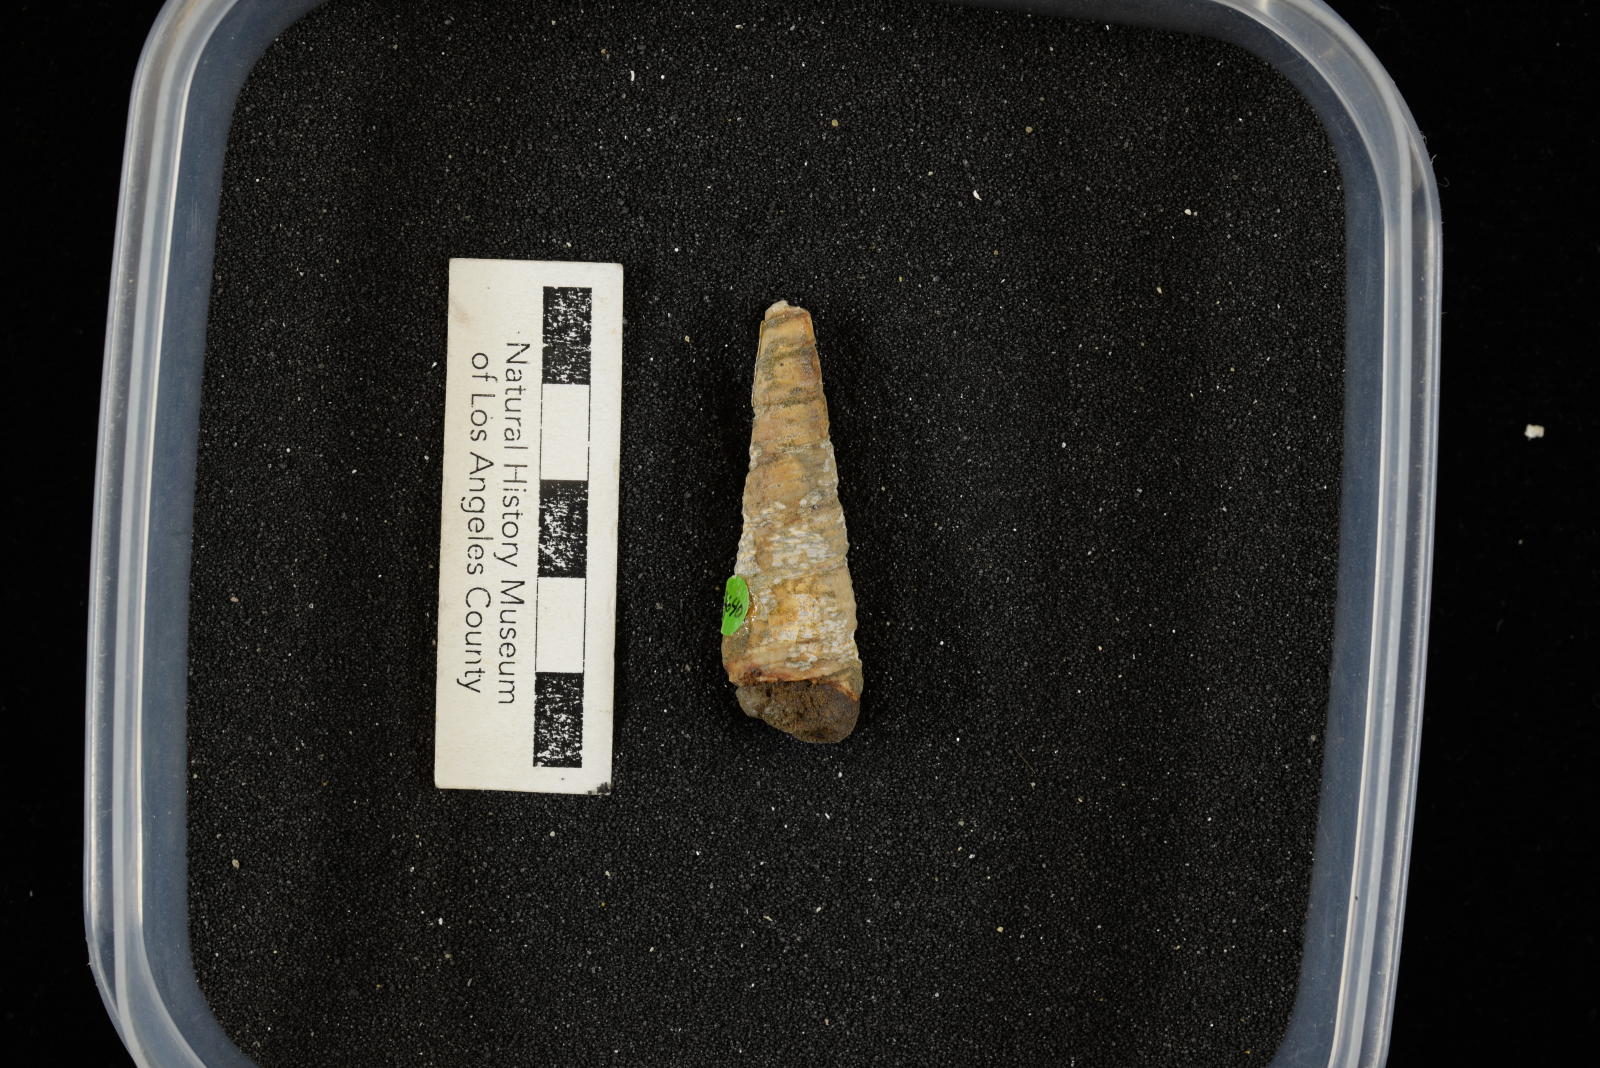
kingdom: Animalia
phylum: Mollusca
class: Gastropoda
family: Turritellidae
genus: Turritella
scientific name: Turritella chicoensis
